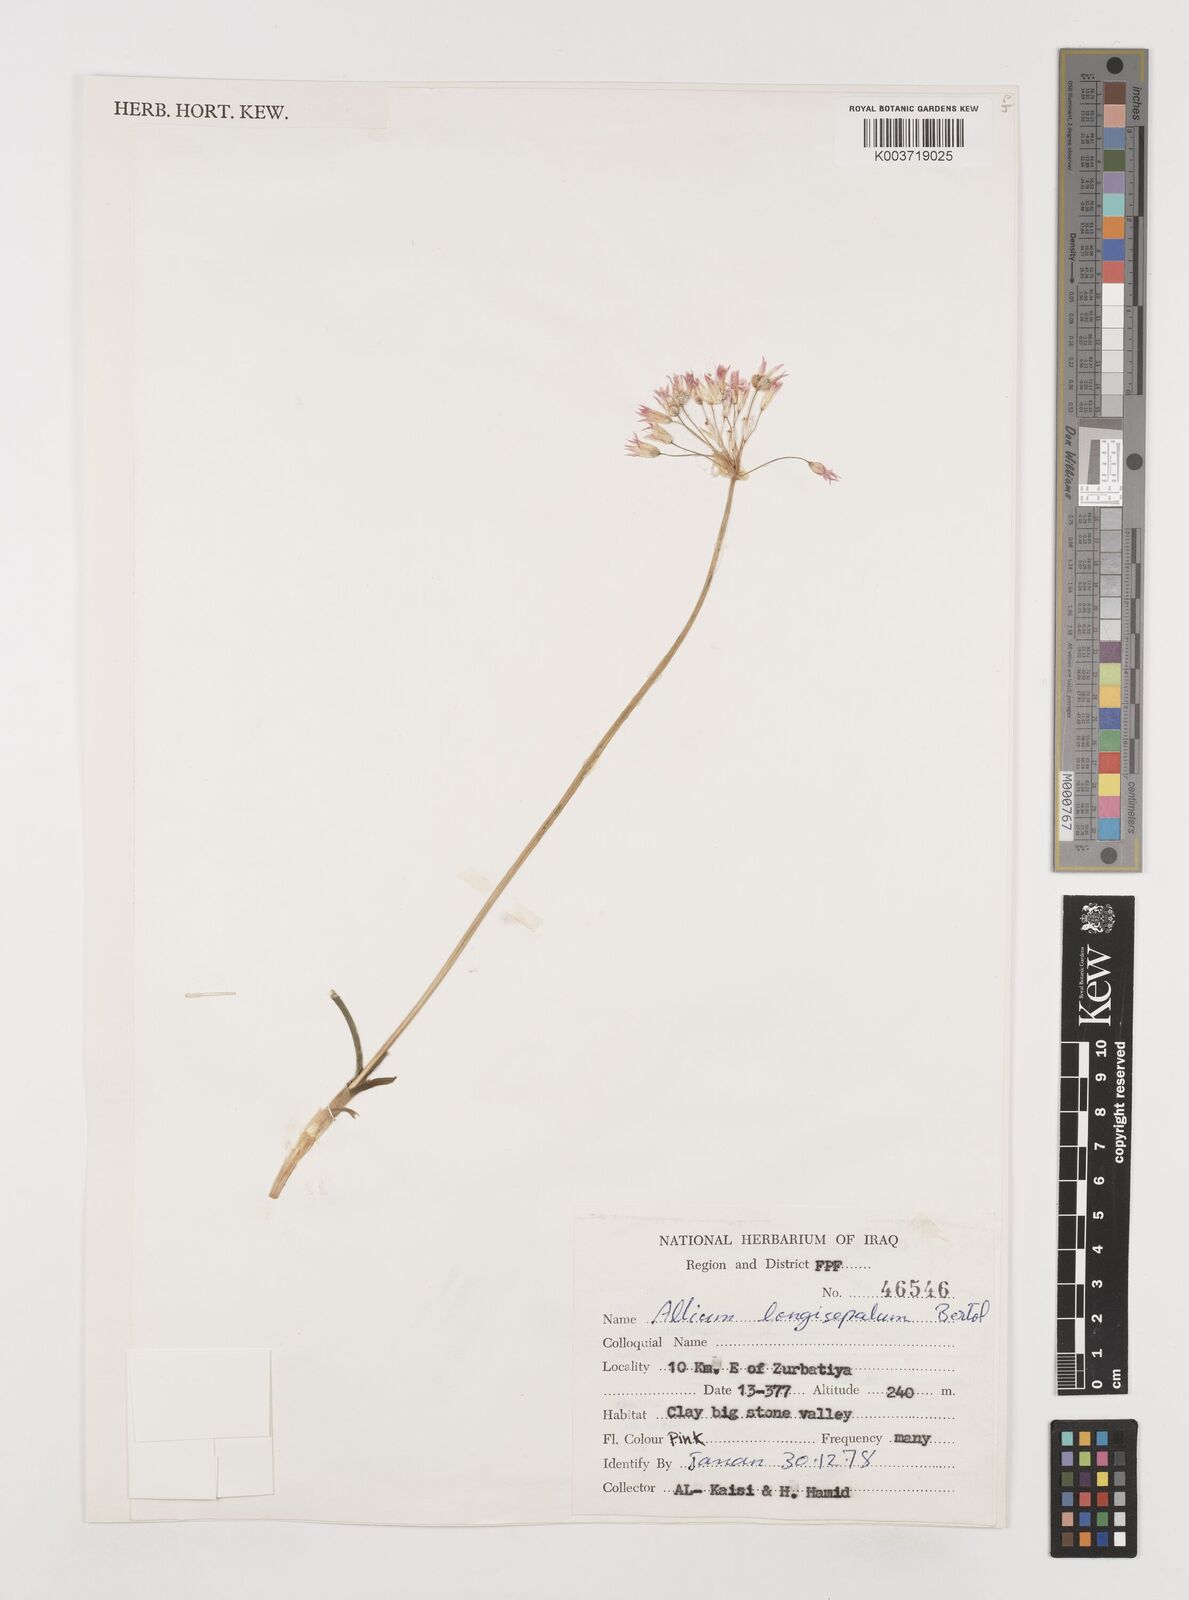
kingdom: Plantae
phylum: Tracheophyta
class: Liliopsida
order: Asparagales
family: Amaryllidaceae
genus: Allium
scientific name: Allium longisepalum
